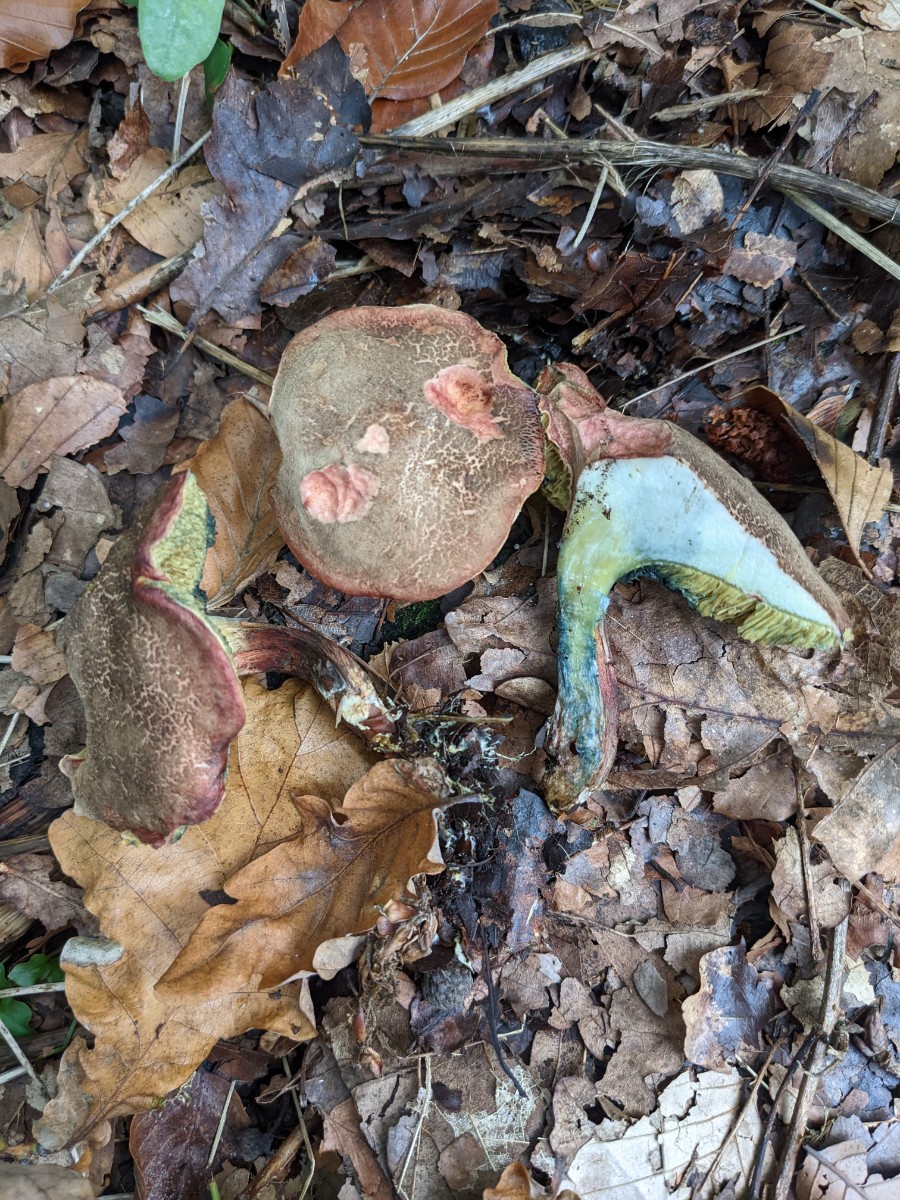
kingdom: Fungi
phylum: Basidiomycota
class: Agaricomycetes
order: Boletales
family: Boletaceae
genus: Xerocomellus
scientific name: Xerocomellus cisalpinus
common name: finsprukken rørhat
